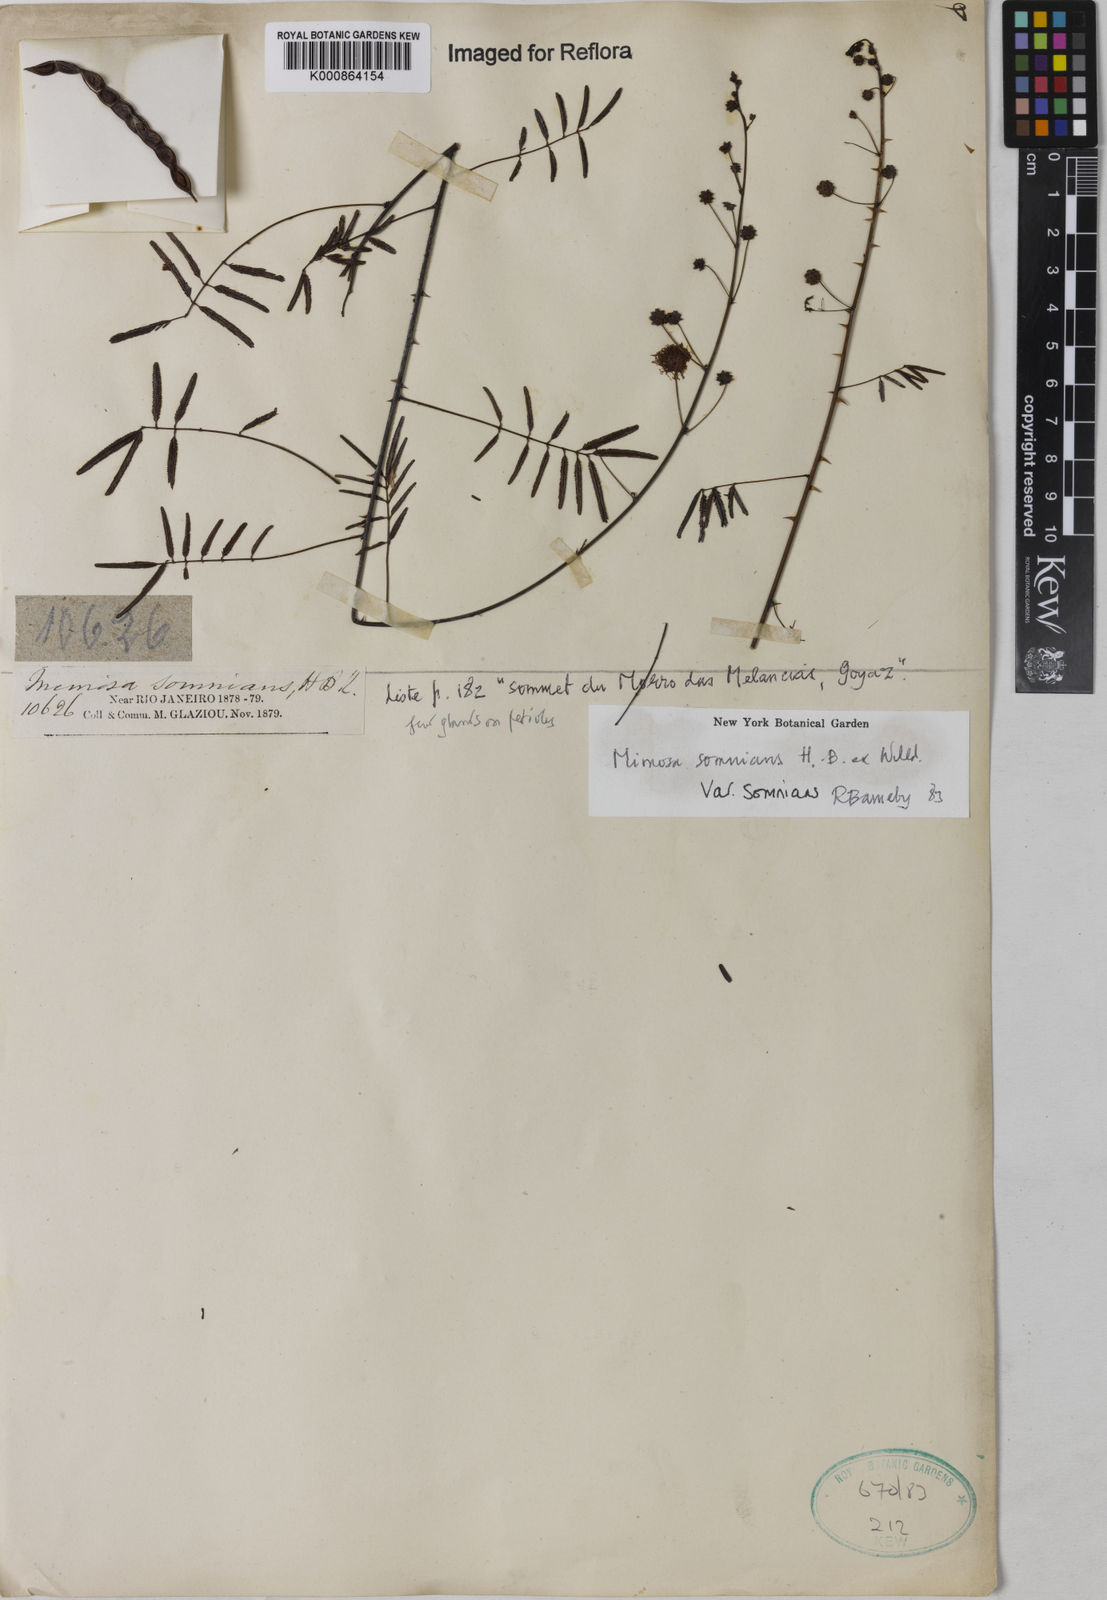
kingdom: Plantae
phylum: Tracheophyta
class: Magnoliopsida
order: Fabales
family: Fabaceae
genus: Mimosa
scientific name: Mimosa somnians
